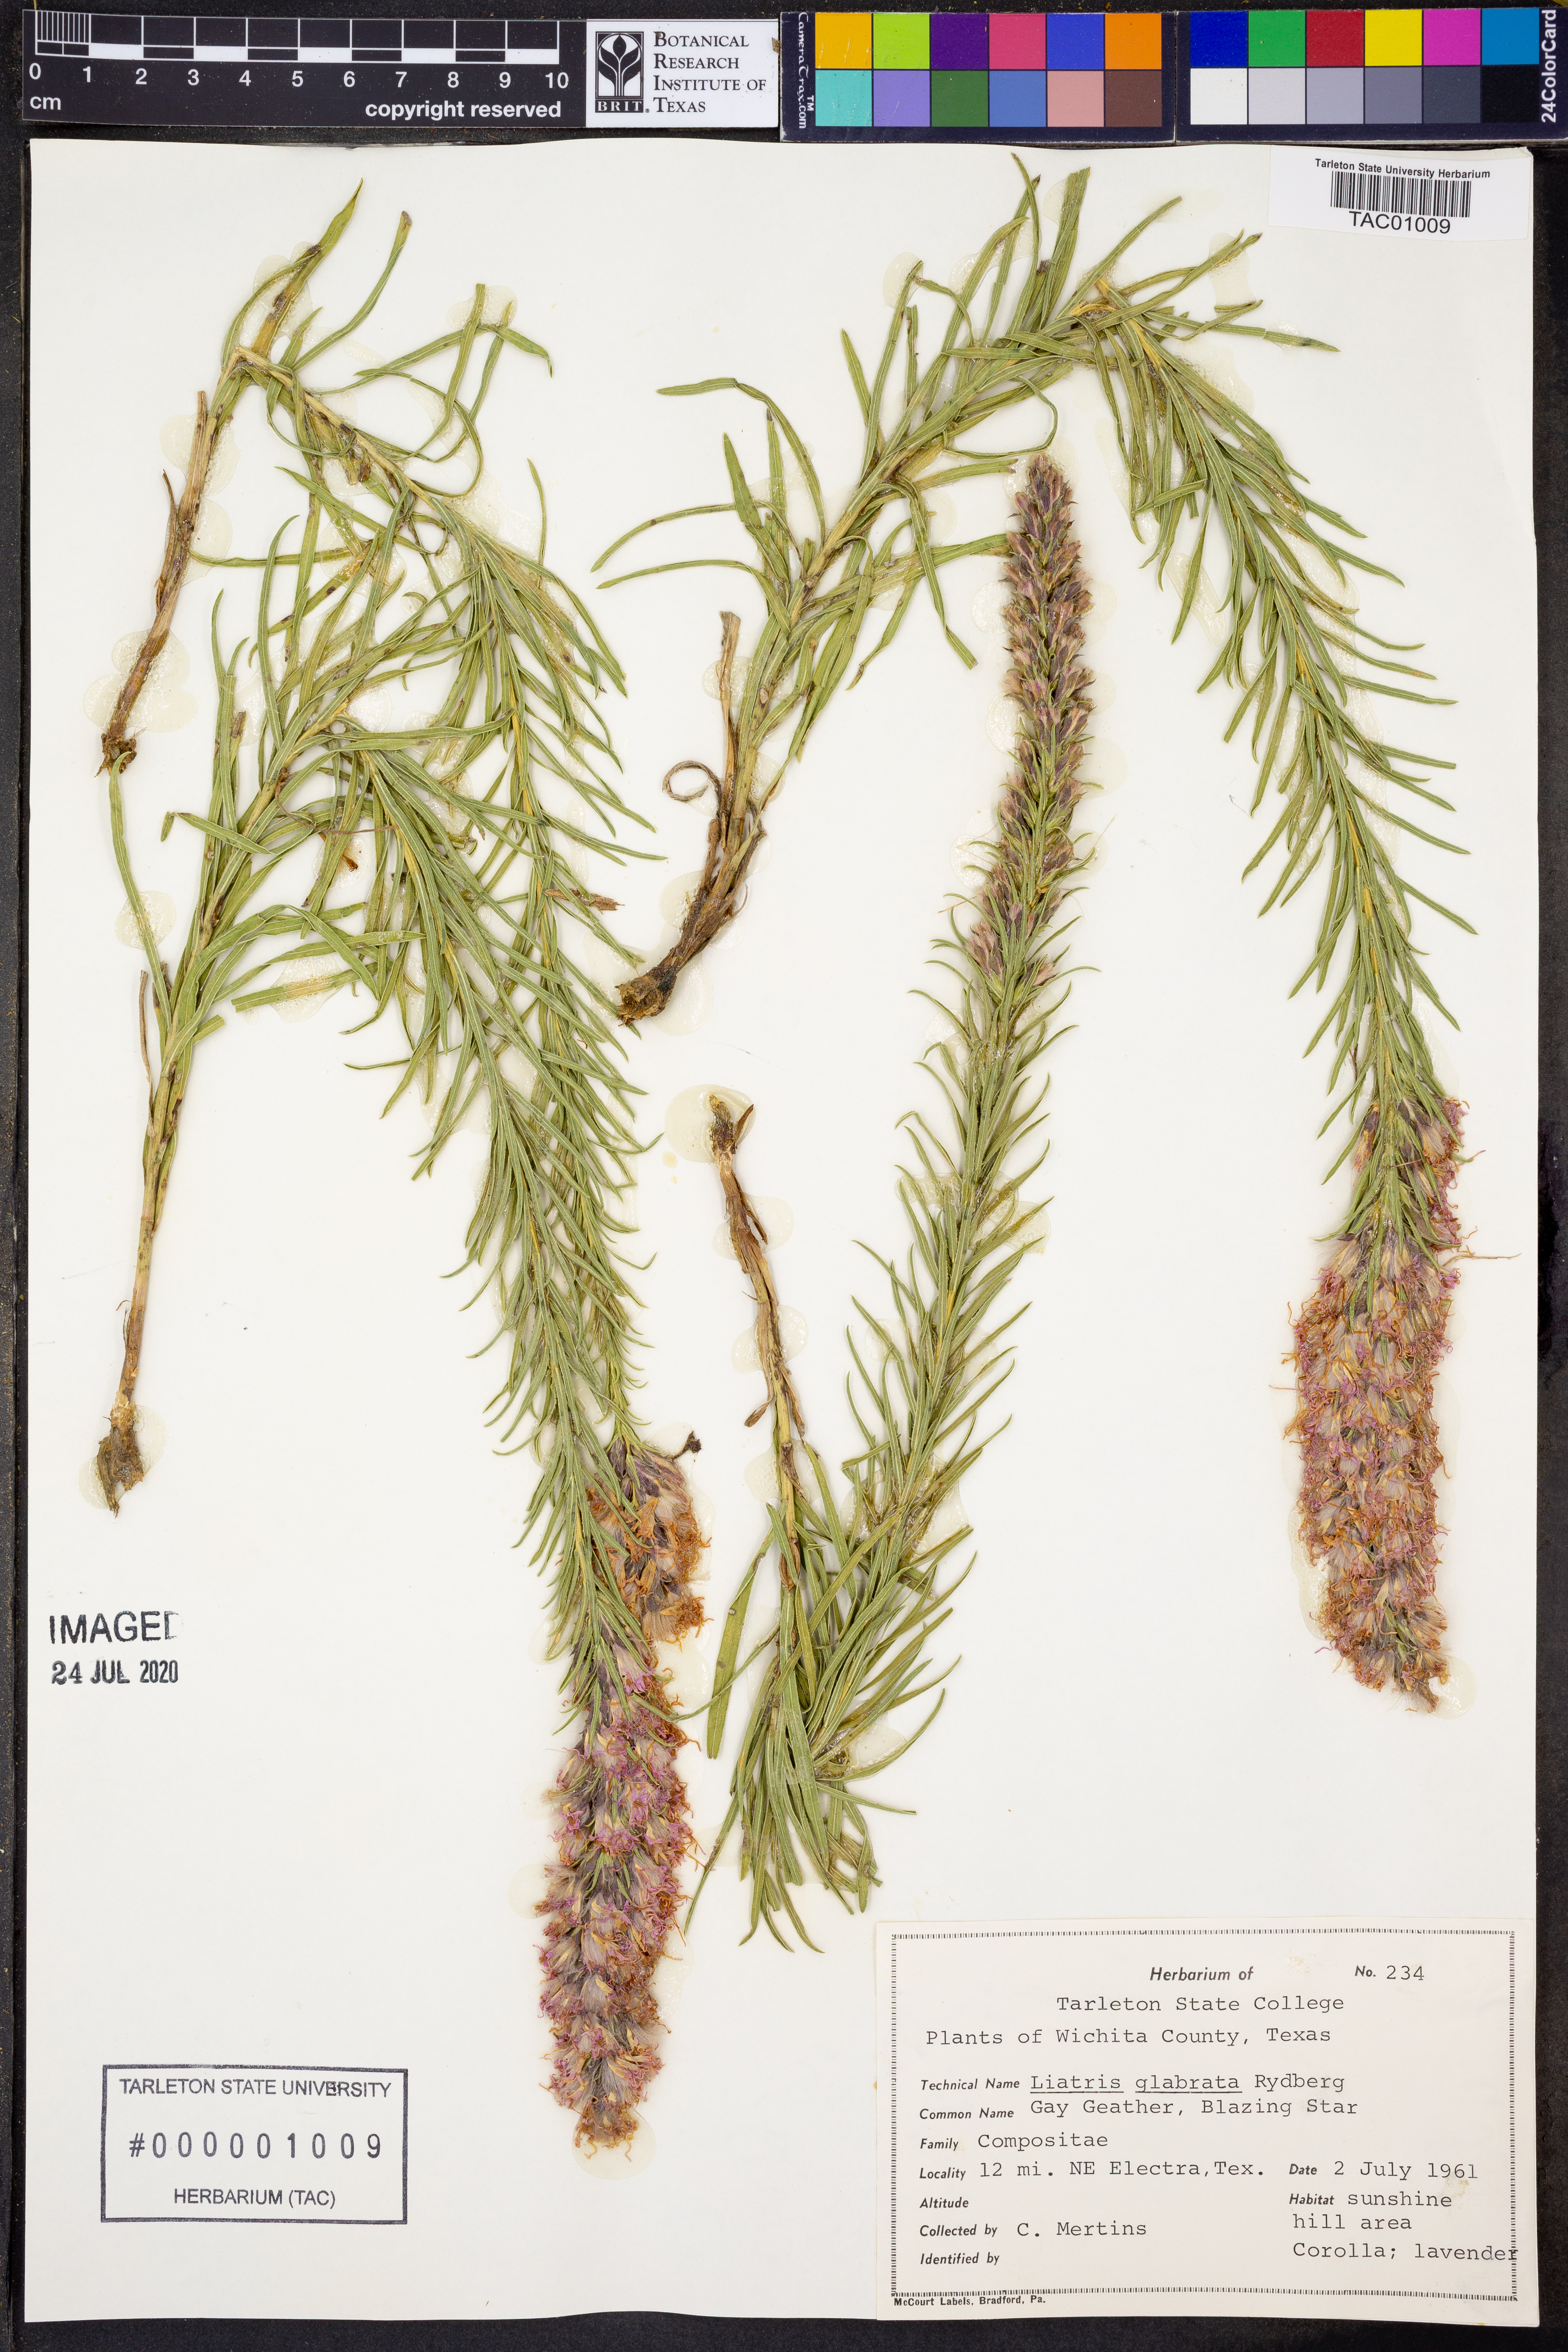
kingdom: Plantae
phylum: Tracheophyta
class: Magnoliopsida
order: Asterales
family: Asteraceae
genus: Liatris
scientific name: Liatris spicata
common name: Florist gayfeather
